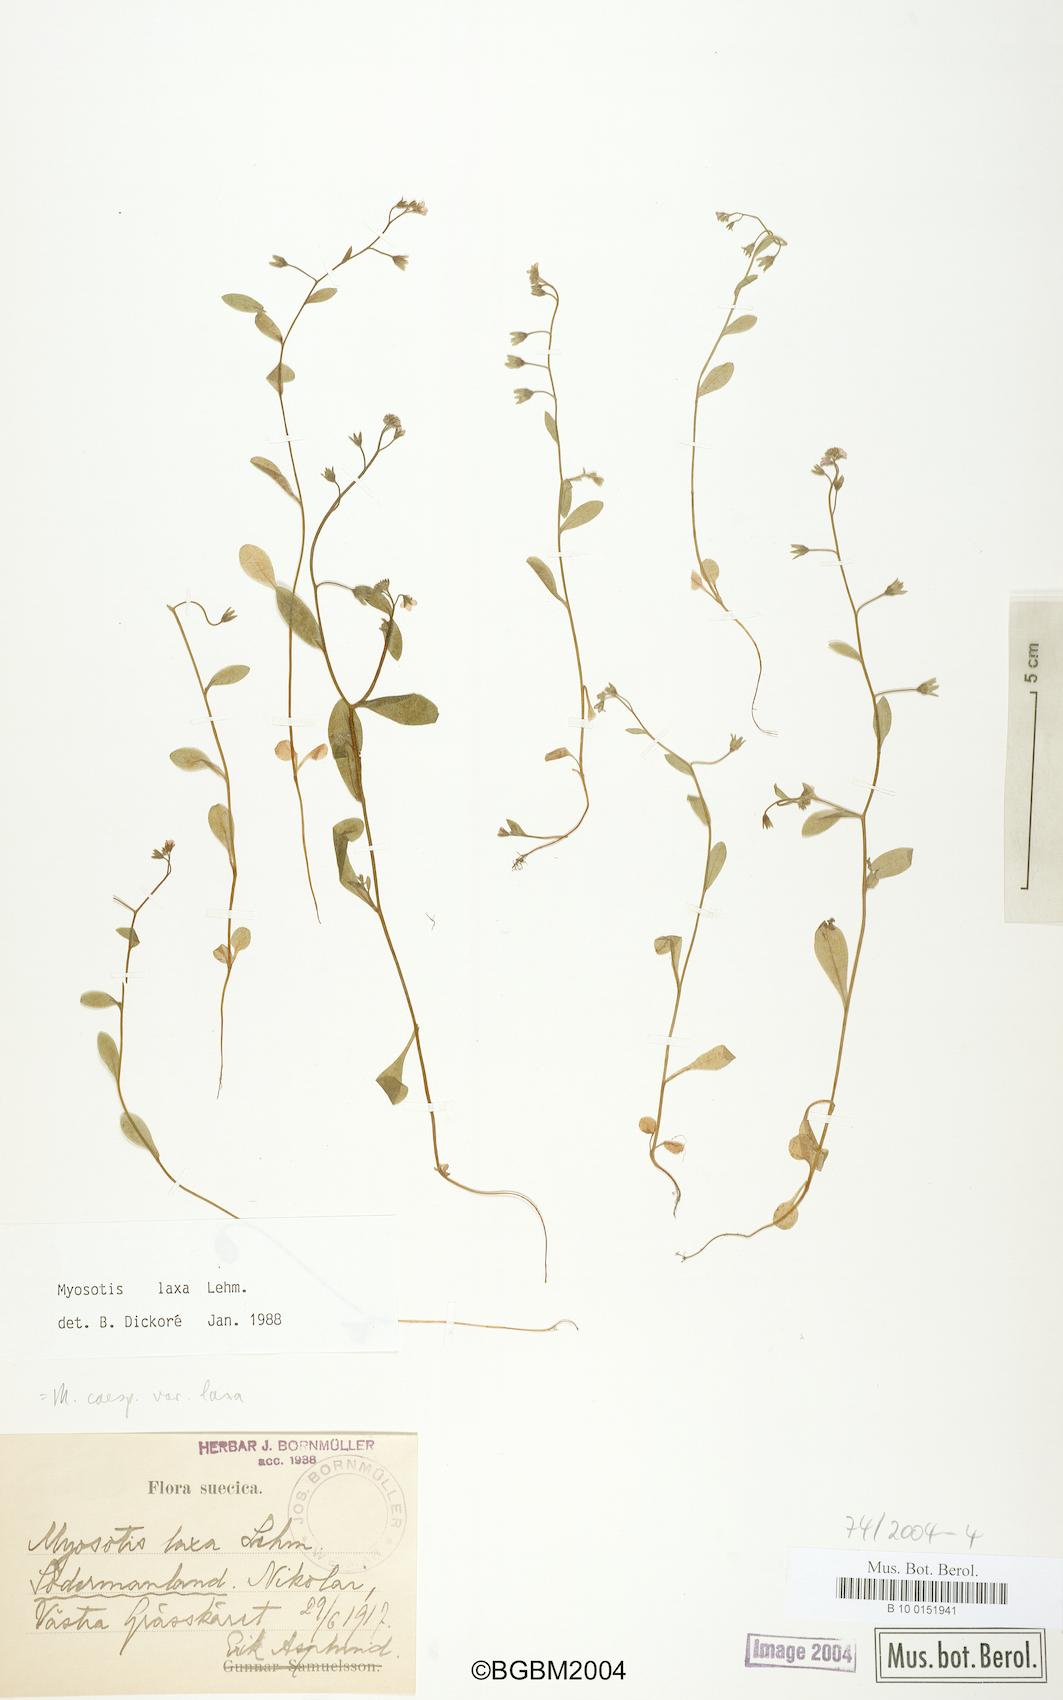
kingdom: Plantae
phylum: Tracheophyta
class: Magnoliopsida
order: Boraginales
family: Boraginaceae
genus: Myosotis
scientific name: Myosotis laxa
